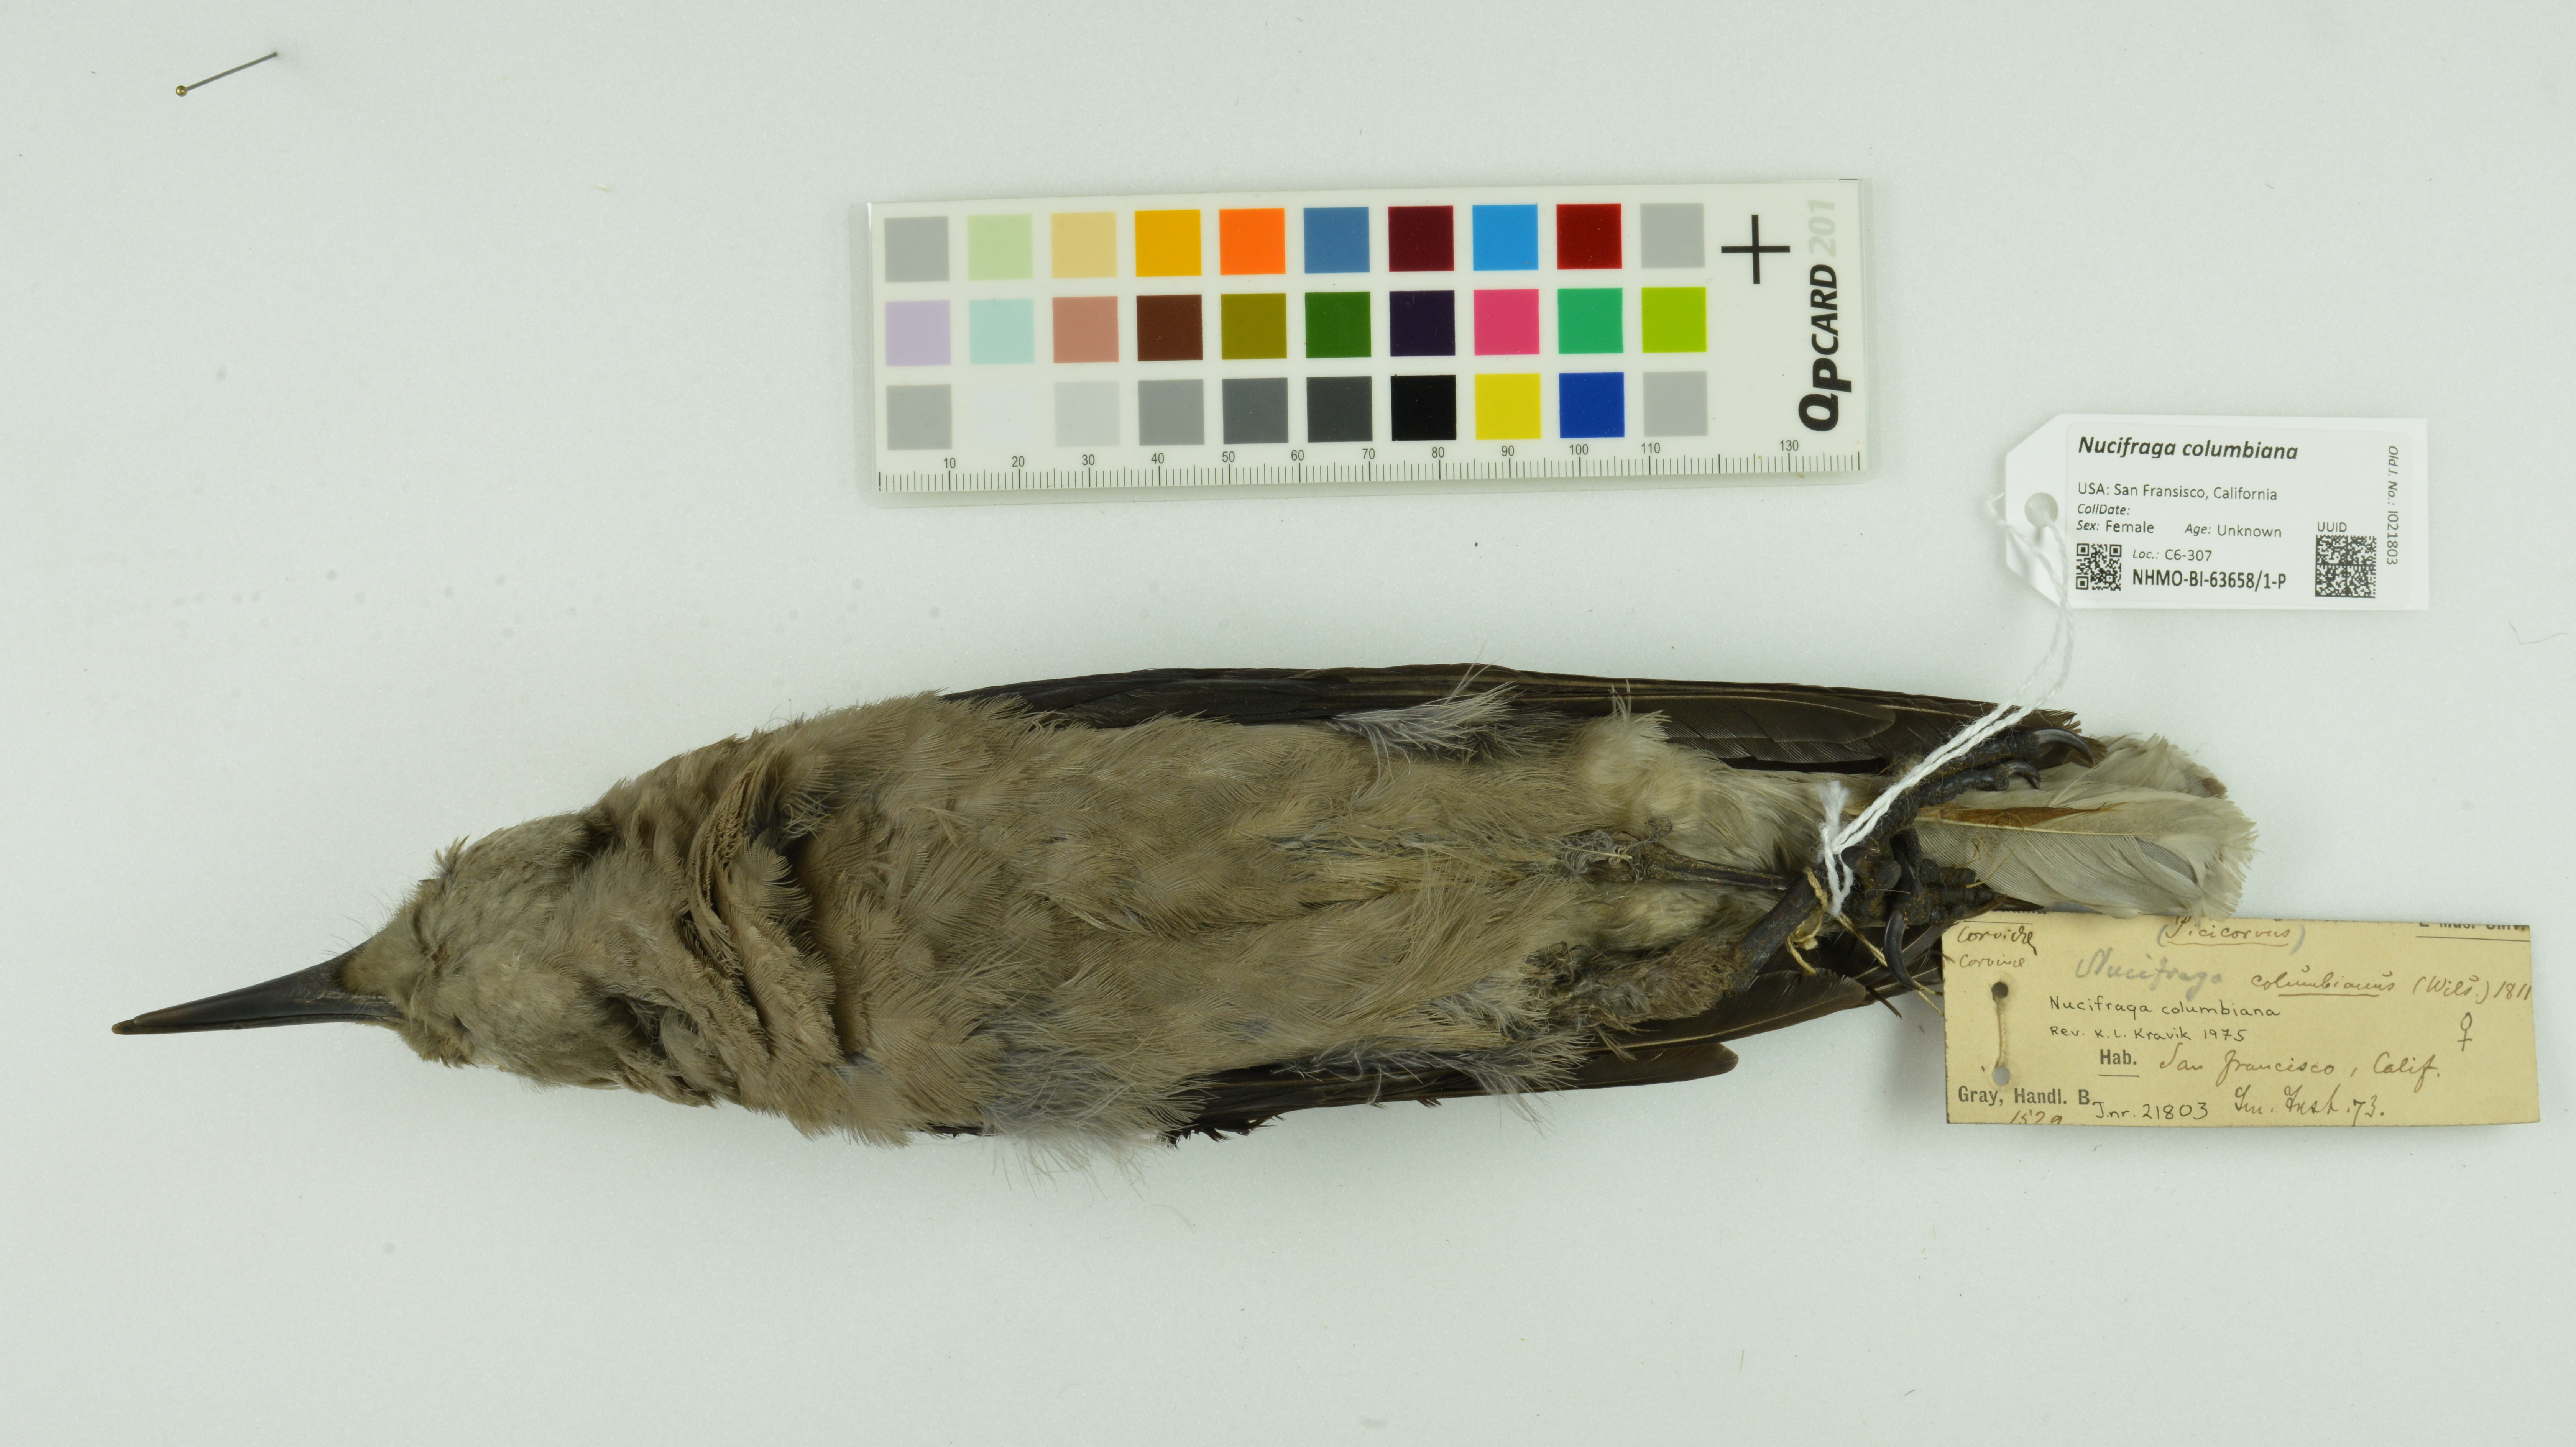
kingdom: Animalia
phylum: Chordata
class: Aves
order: Passeriformes
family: Corvidae
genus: Nucifraga
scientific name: Nucifraga columbiana
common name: Clark's nutcracker
